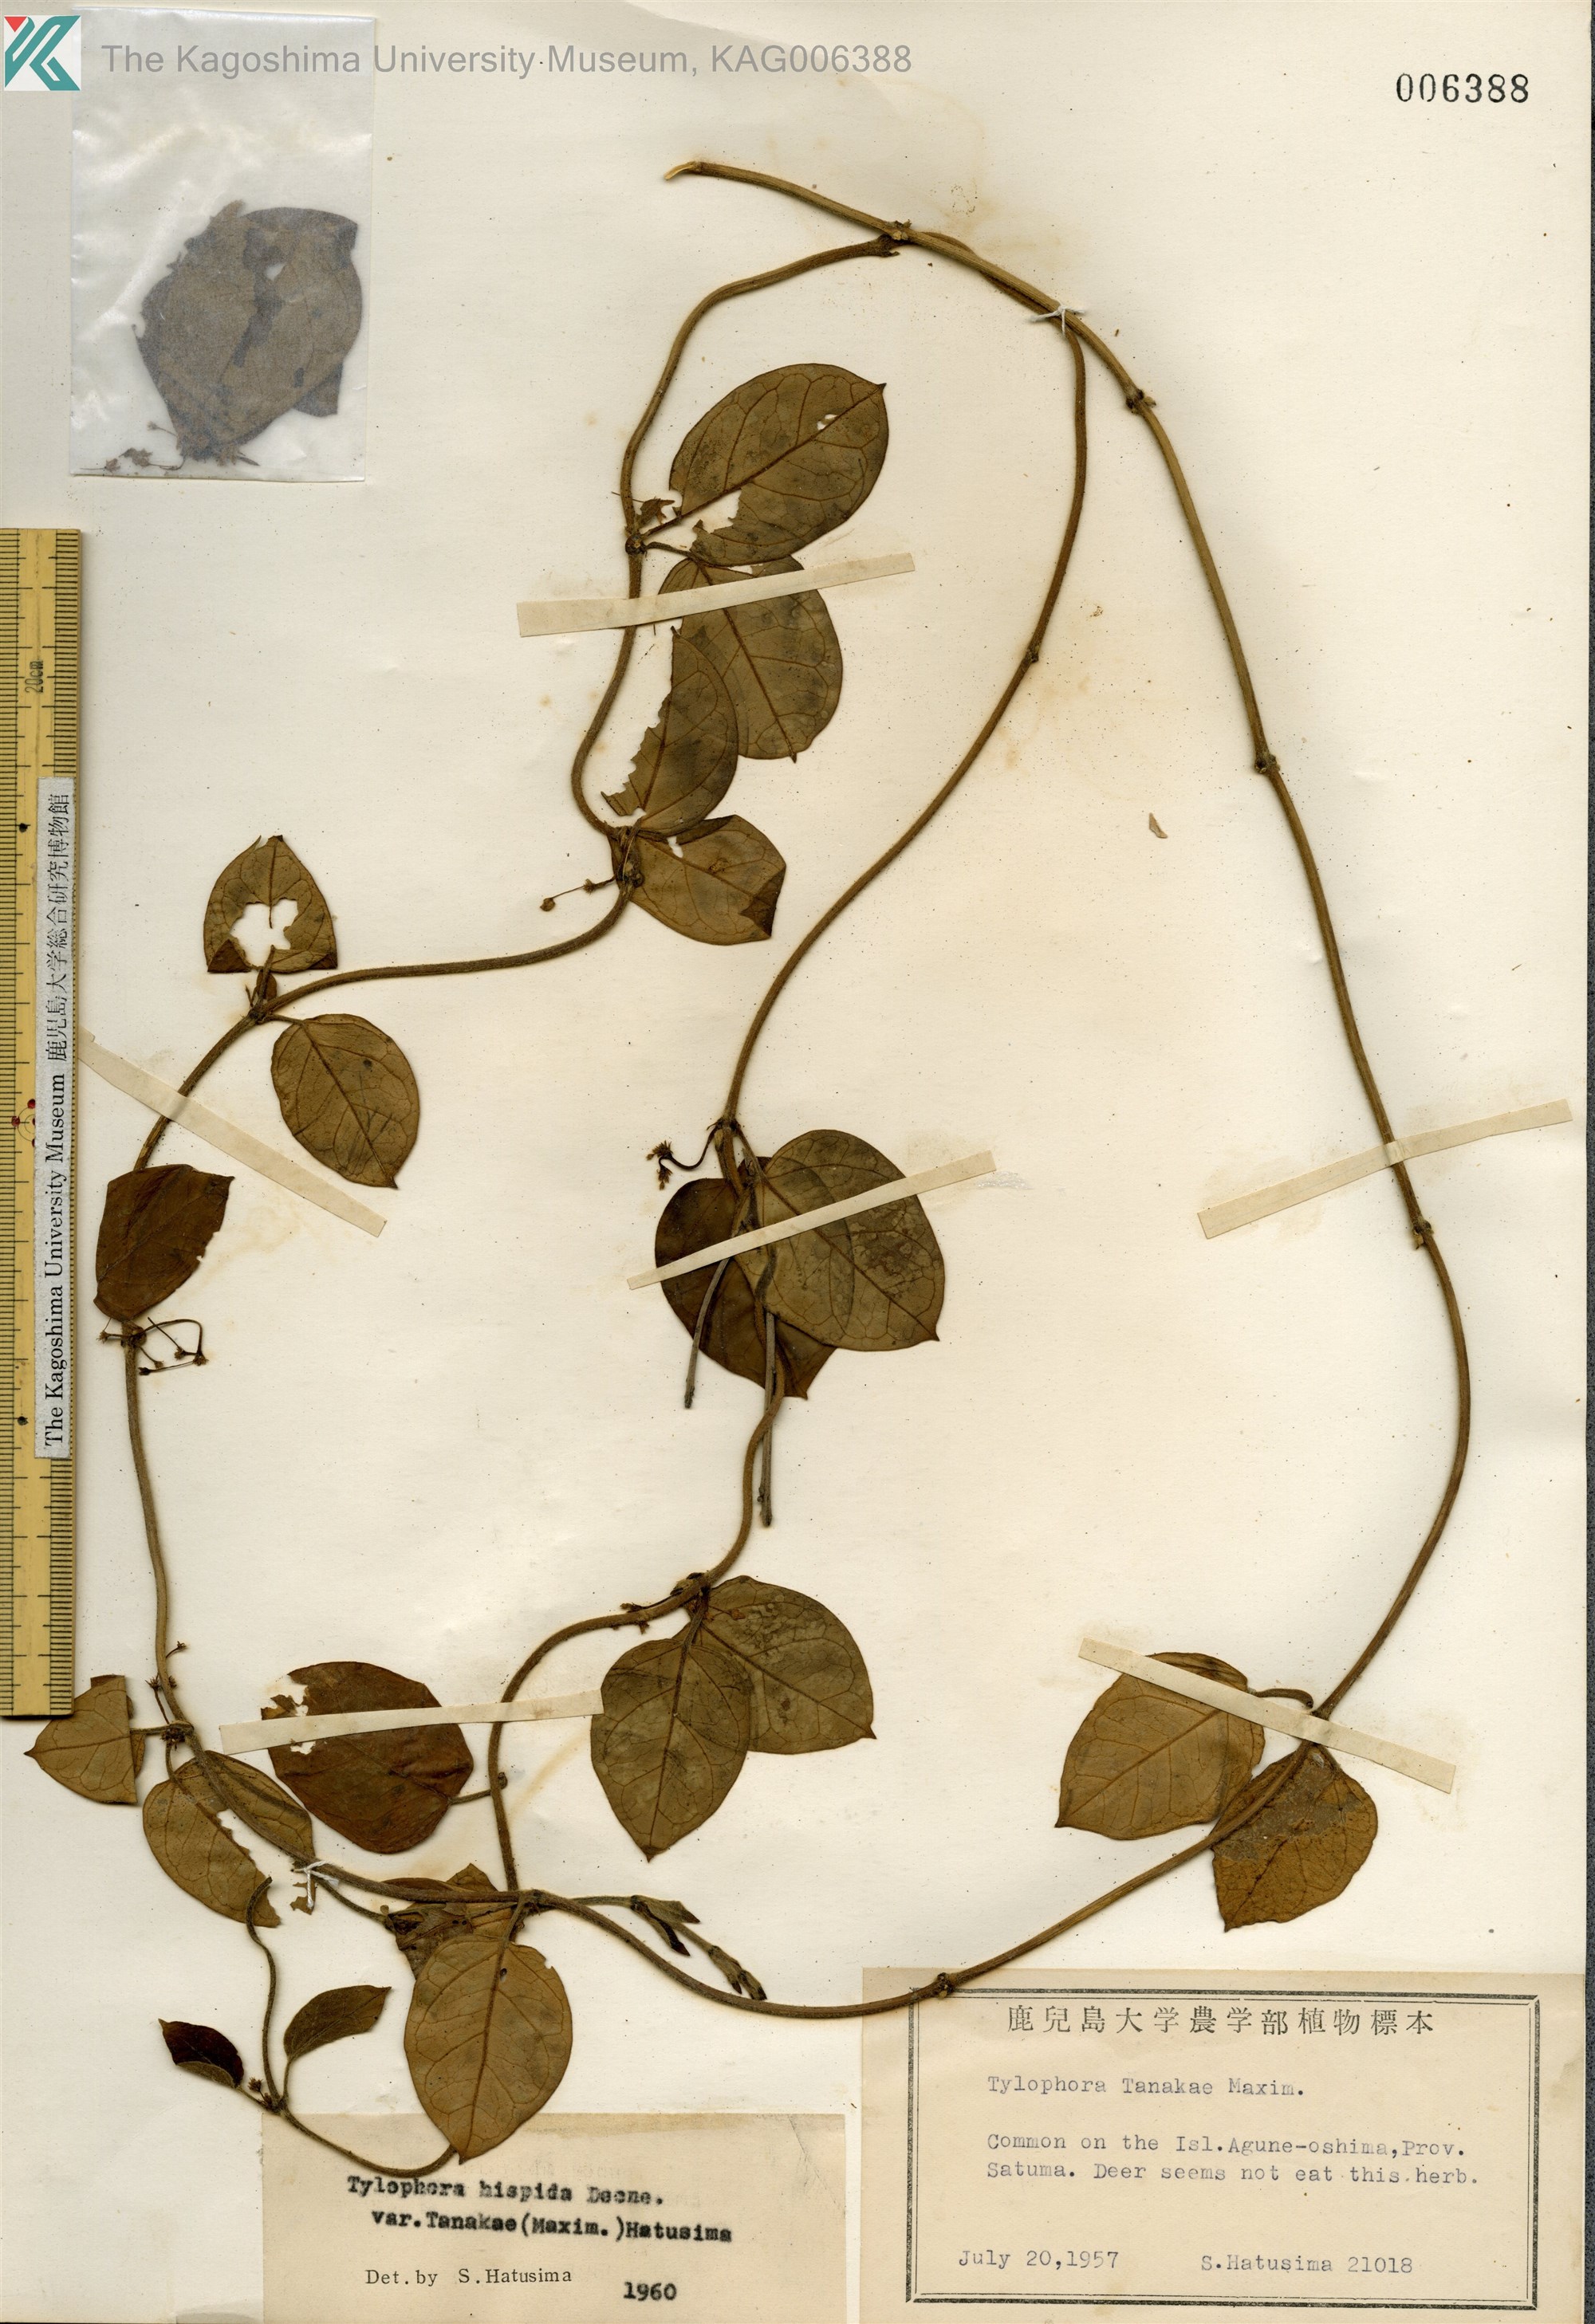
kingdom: Plantae
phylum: Tracheophyta
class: Magnoliopsida
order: Gentianales
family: Apocynaceae
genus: Vincetoxicum
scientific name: Vincetoxicum Tylophora tanakae
